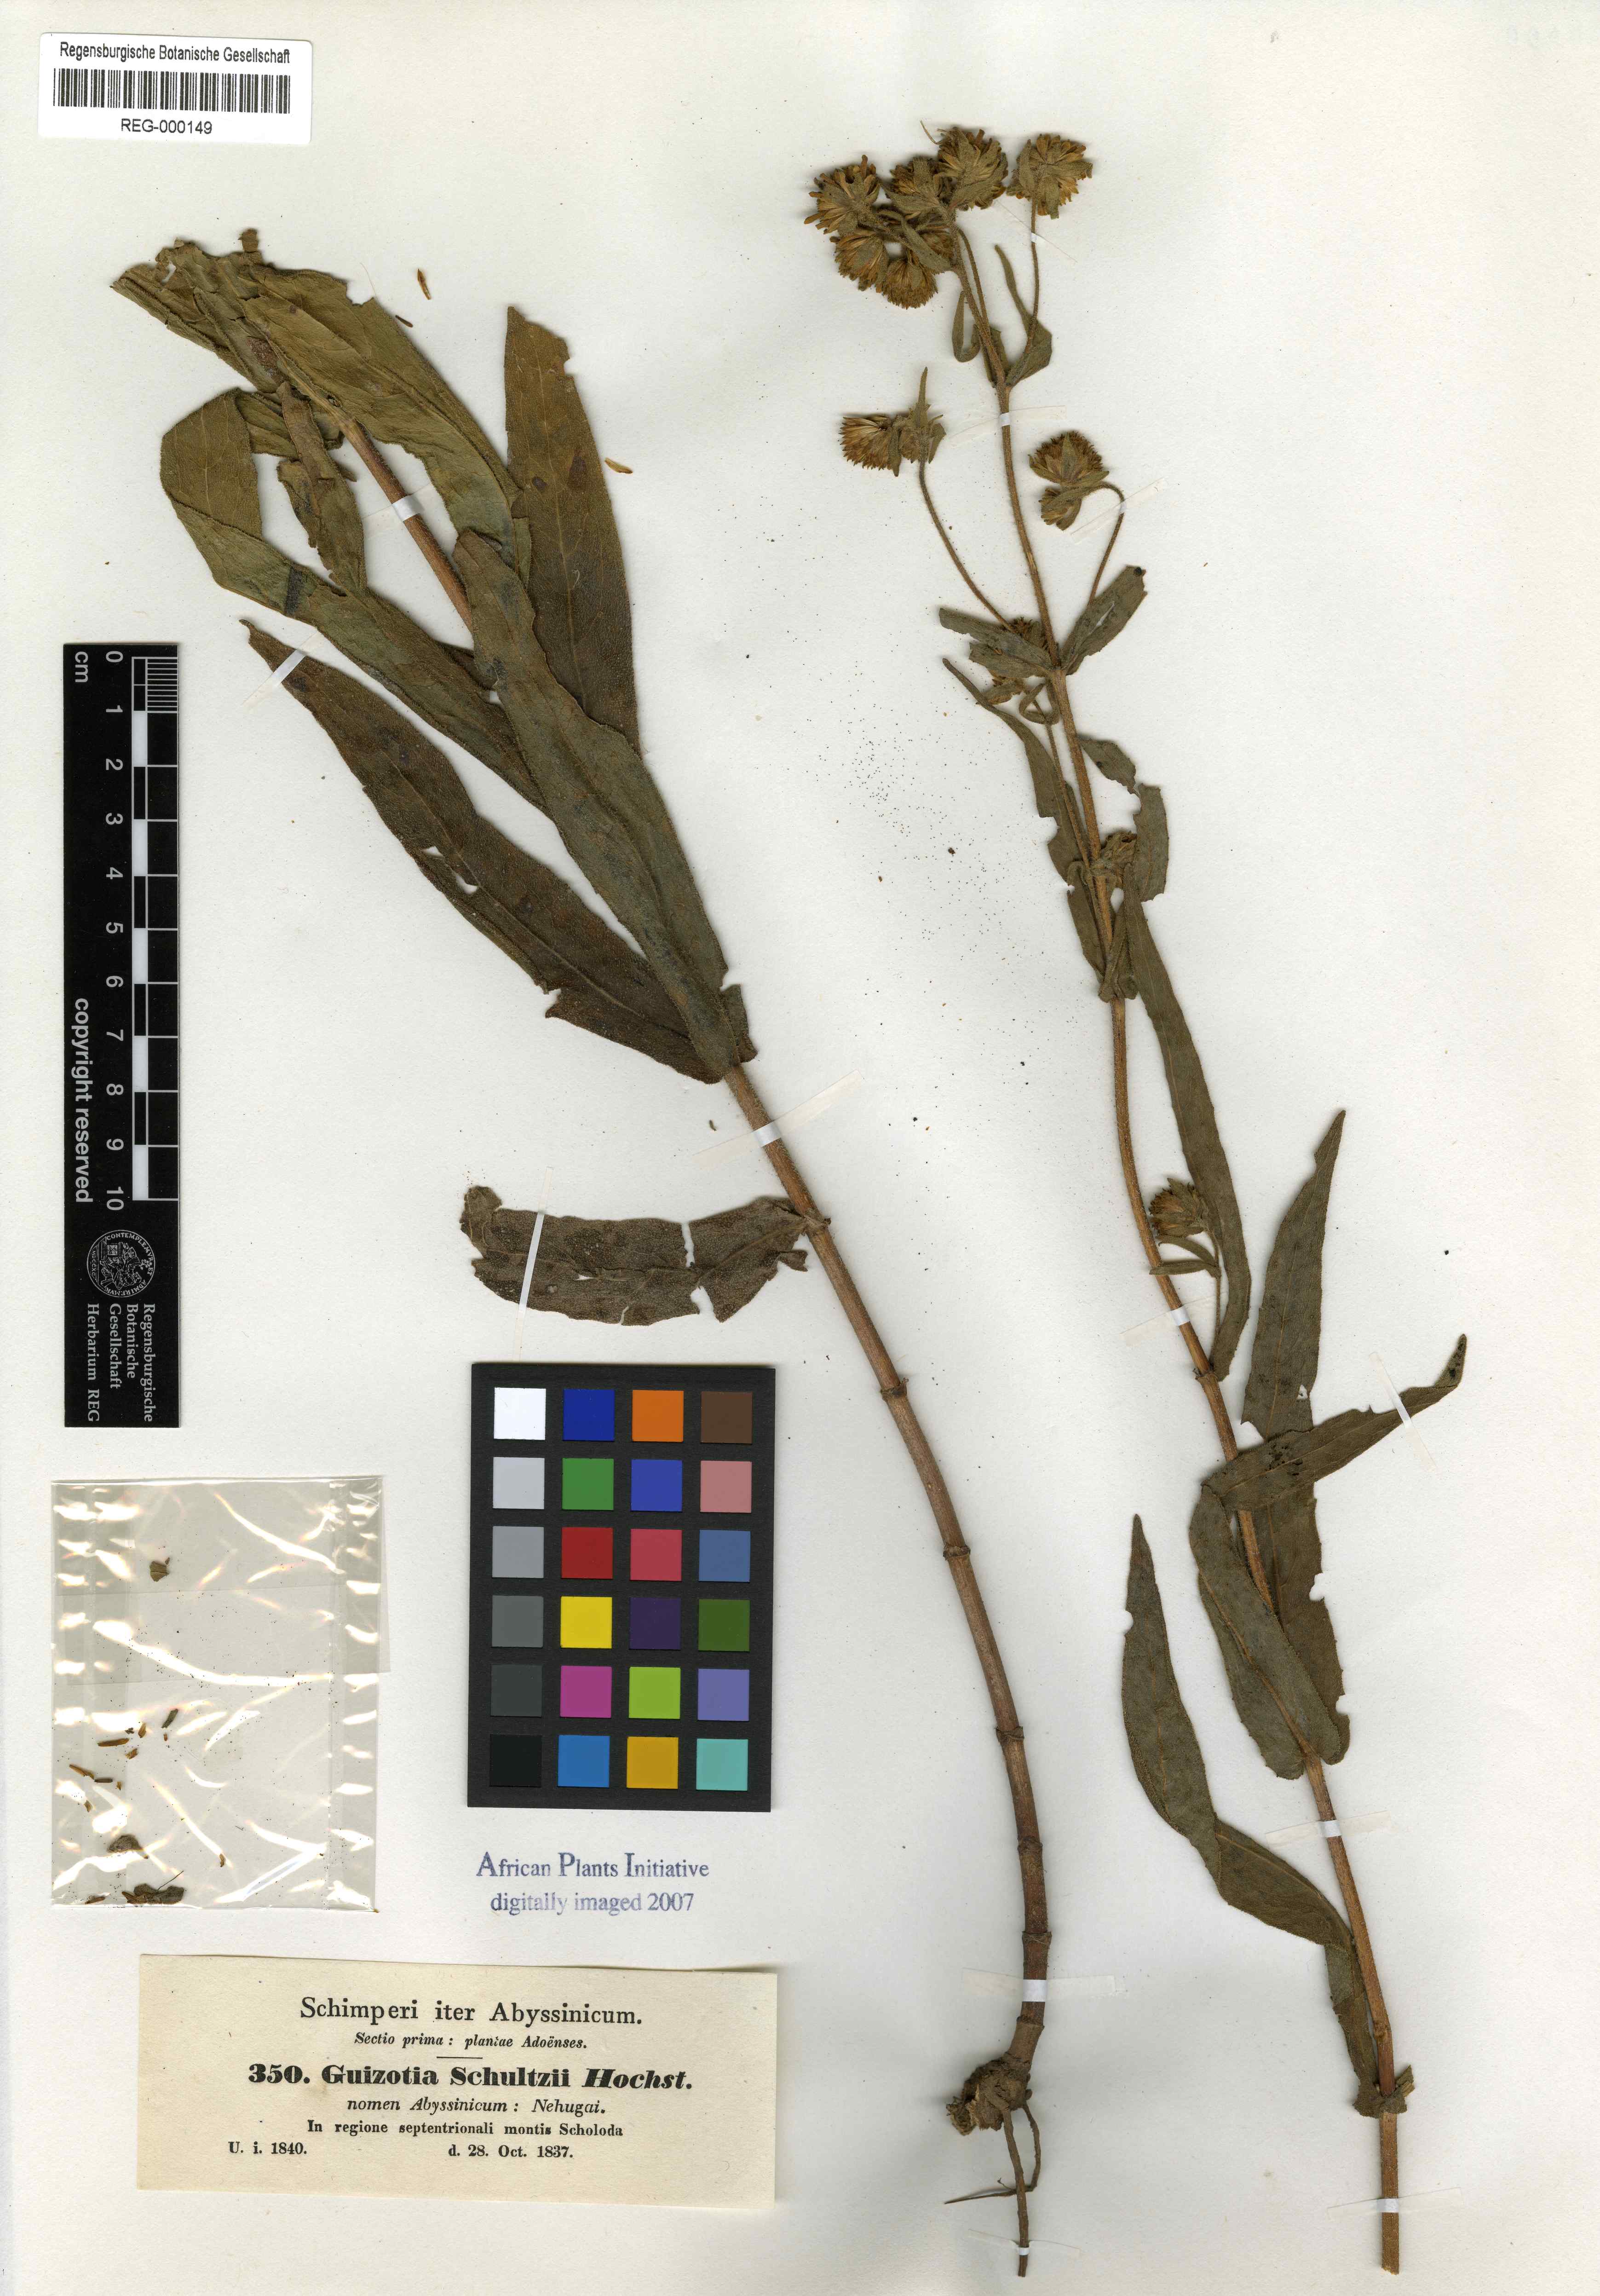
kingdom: Plantae
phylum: Tracheophyta
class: Magnoliopsida
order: Asterales
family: Asteraceae
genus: Guizotia
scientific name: Guizotia scabra
